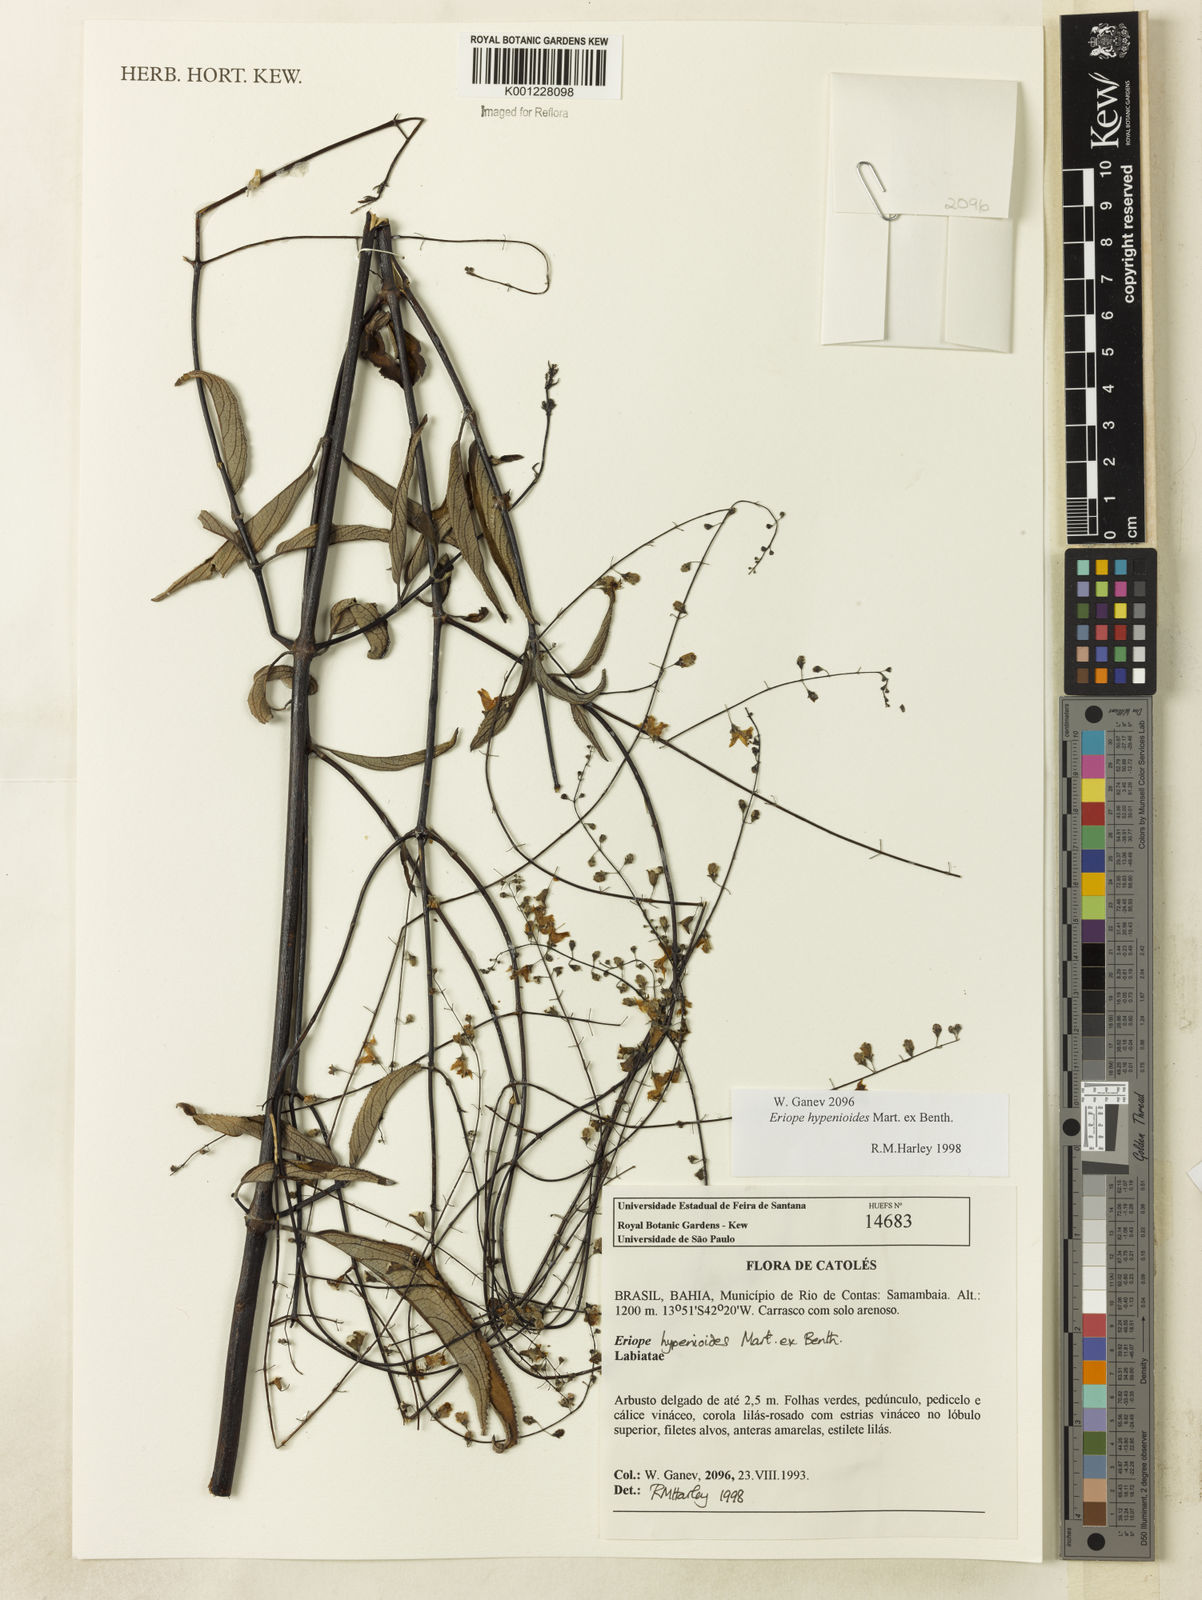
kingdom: Plantae
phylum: Tracheophyta
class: Magnoliopsida
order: Lamiales
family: Lamiaceae
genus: Eriope
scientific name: Eriope hypenioides
